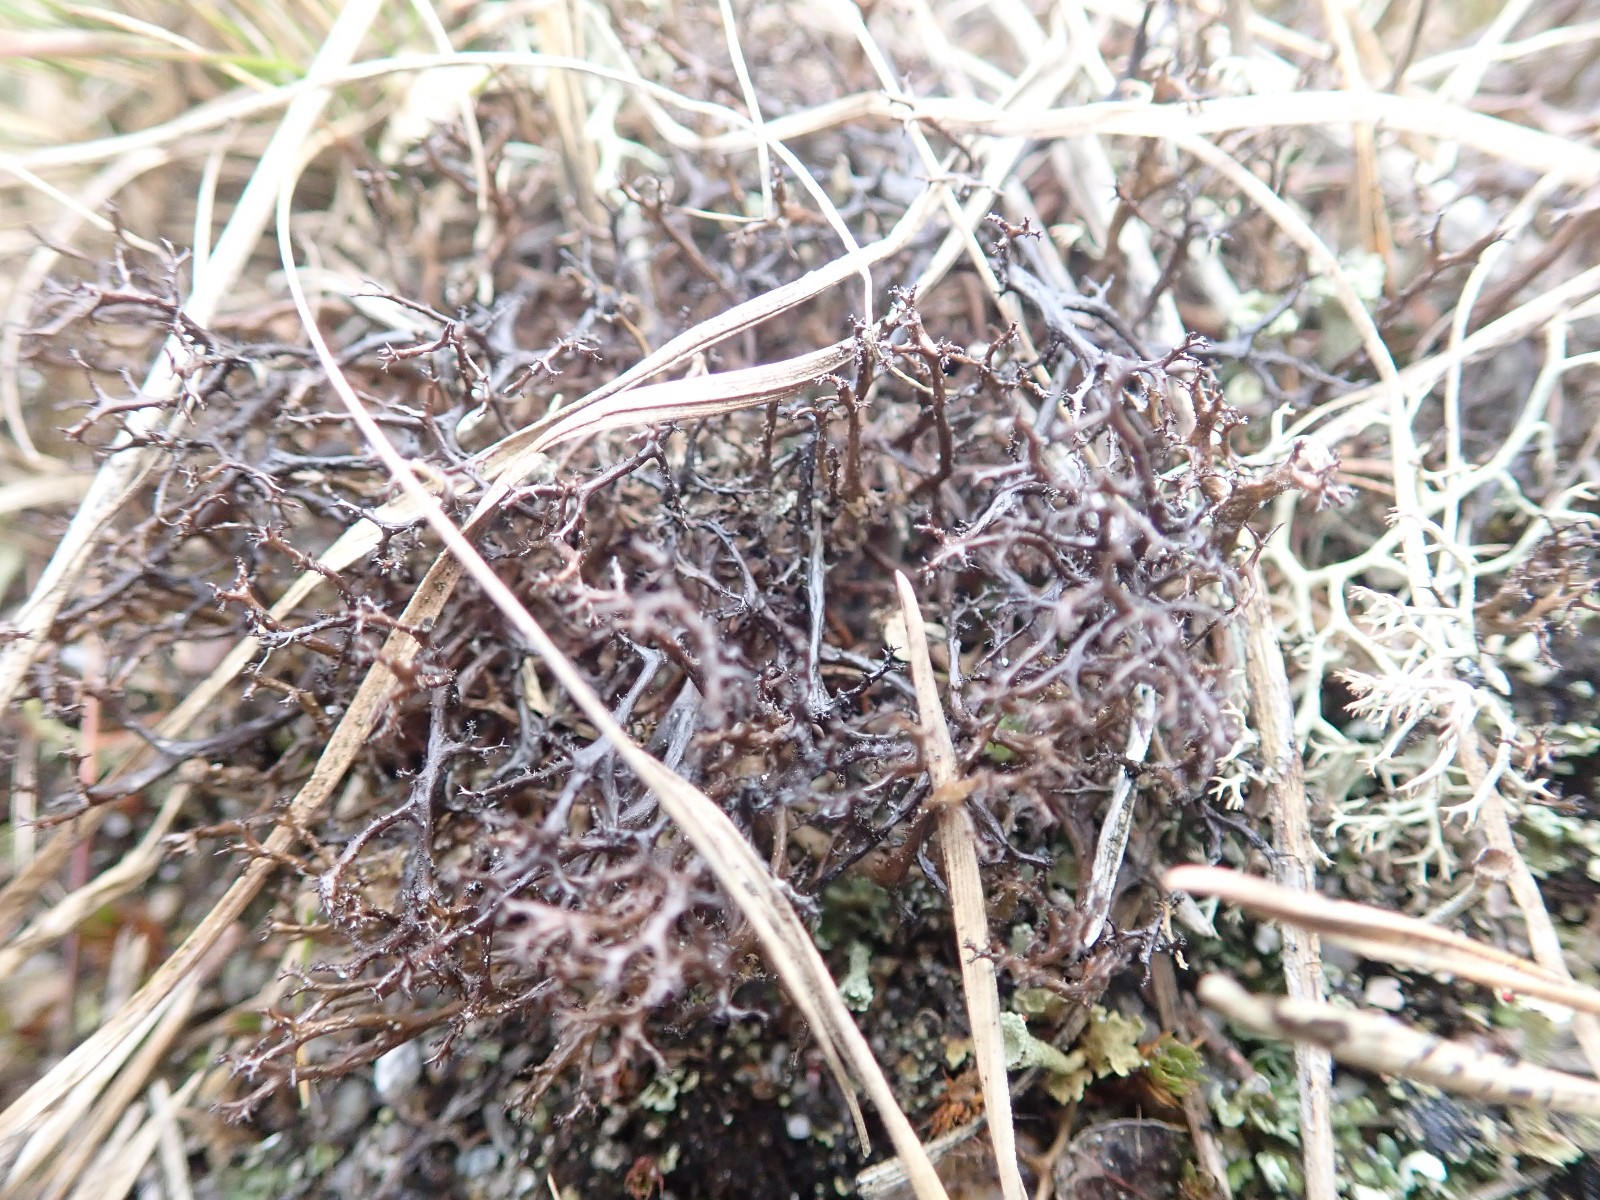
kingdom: Fungi
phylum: Ascomycota
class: Lecanoromycetes
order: Lecanorales
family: Parmeliaceae
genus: Cetraria
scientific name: Cetraria muricata
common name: tue-tjørnelav
